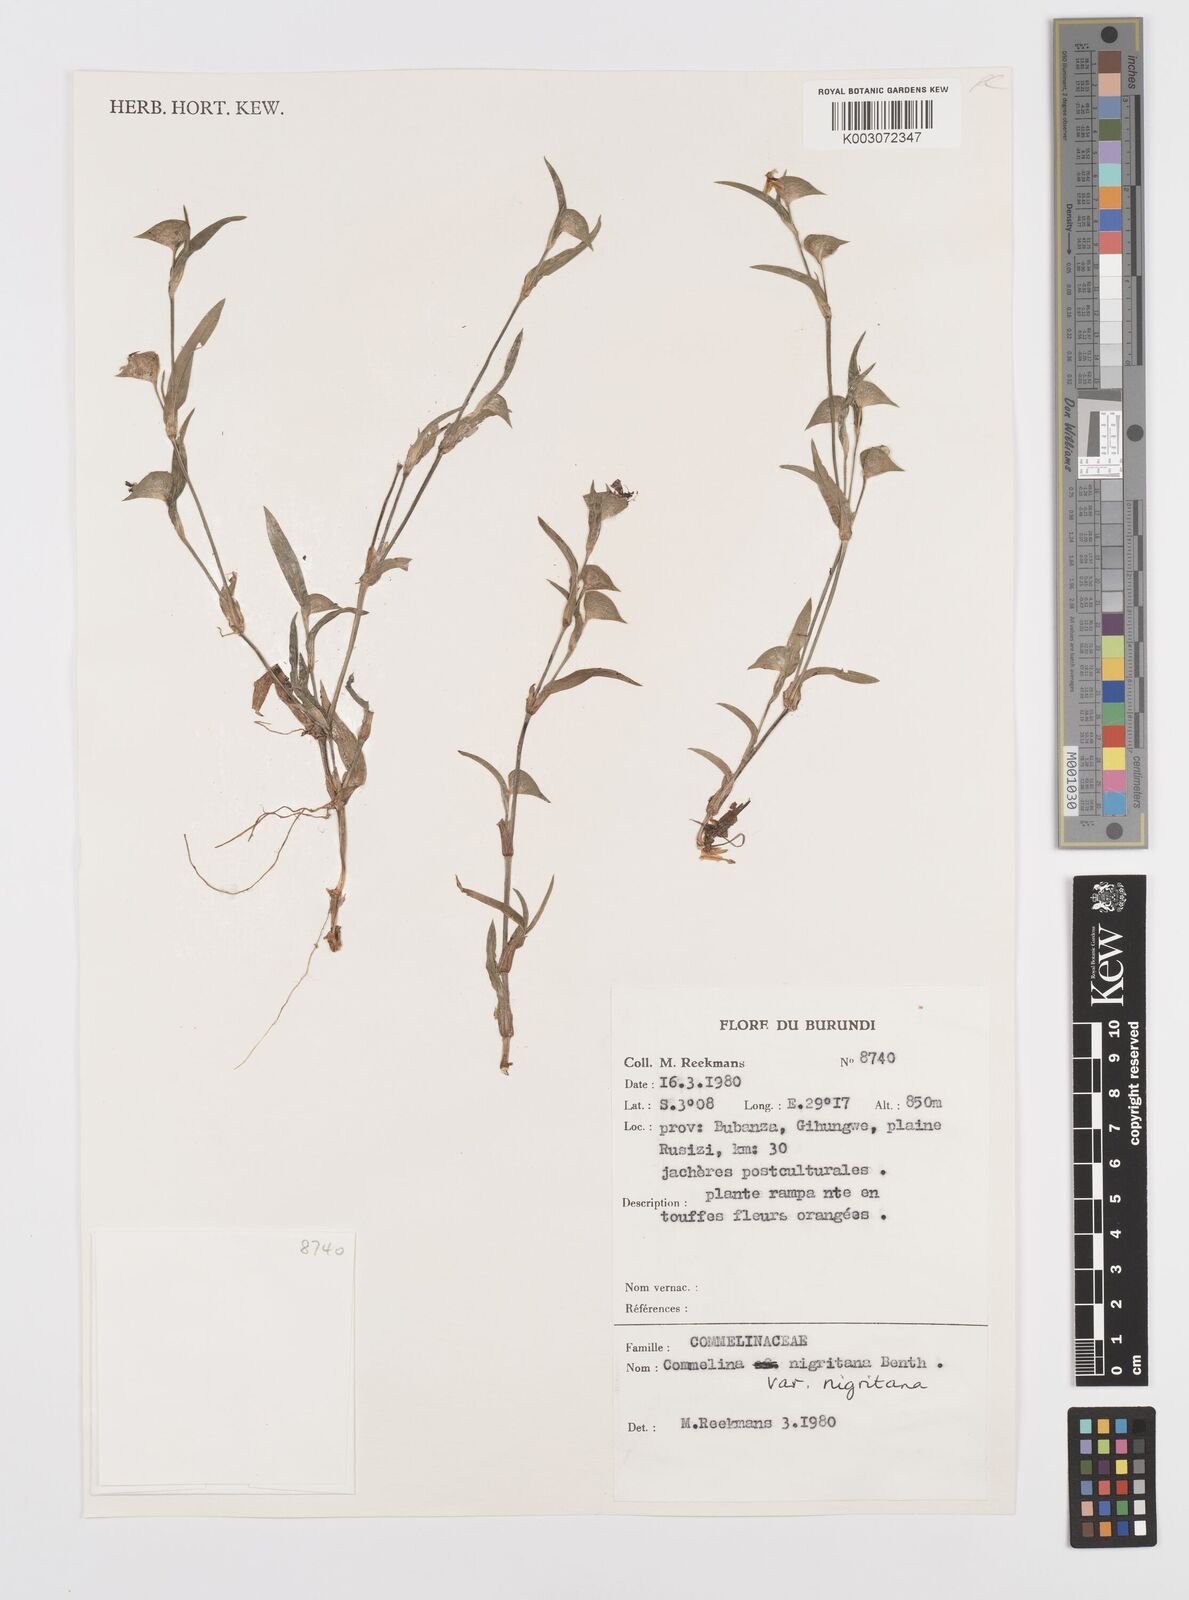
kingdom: Plantae
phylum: Tracheophyta
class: Liliopsida
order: Commelinales
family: Commelinaceae
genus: Commelina
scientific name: Commelina
